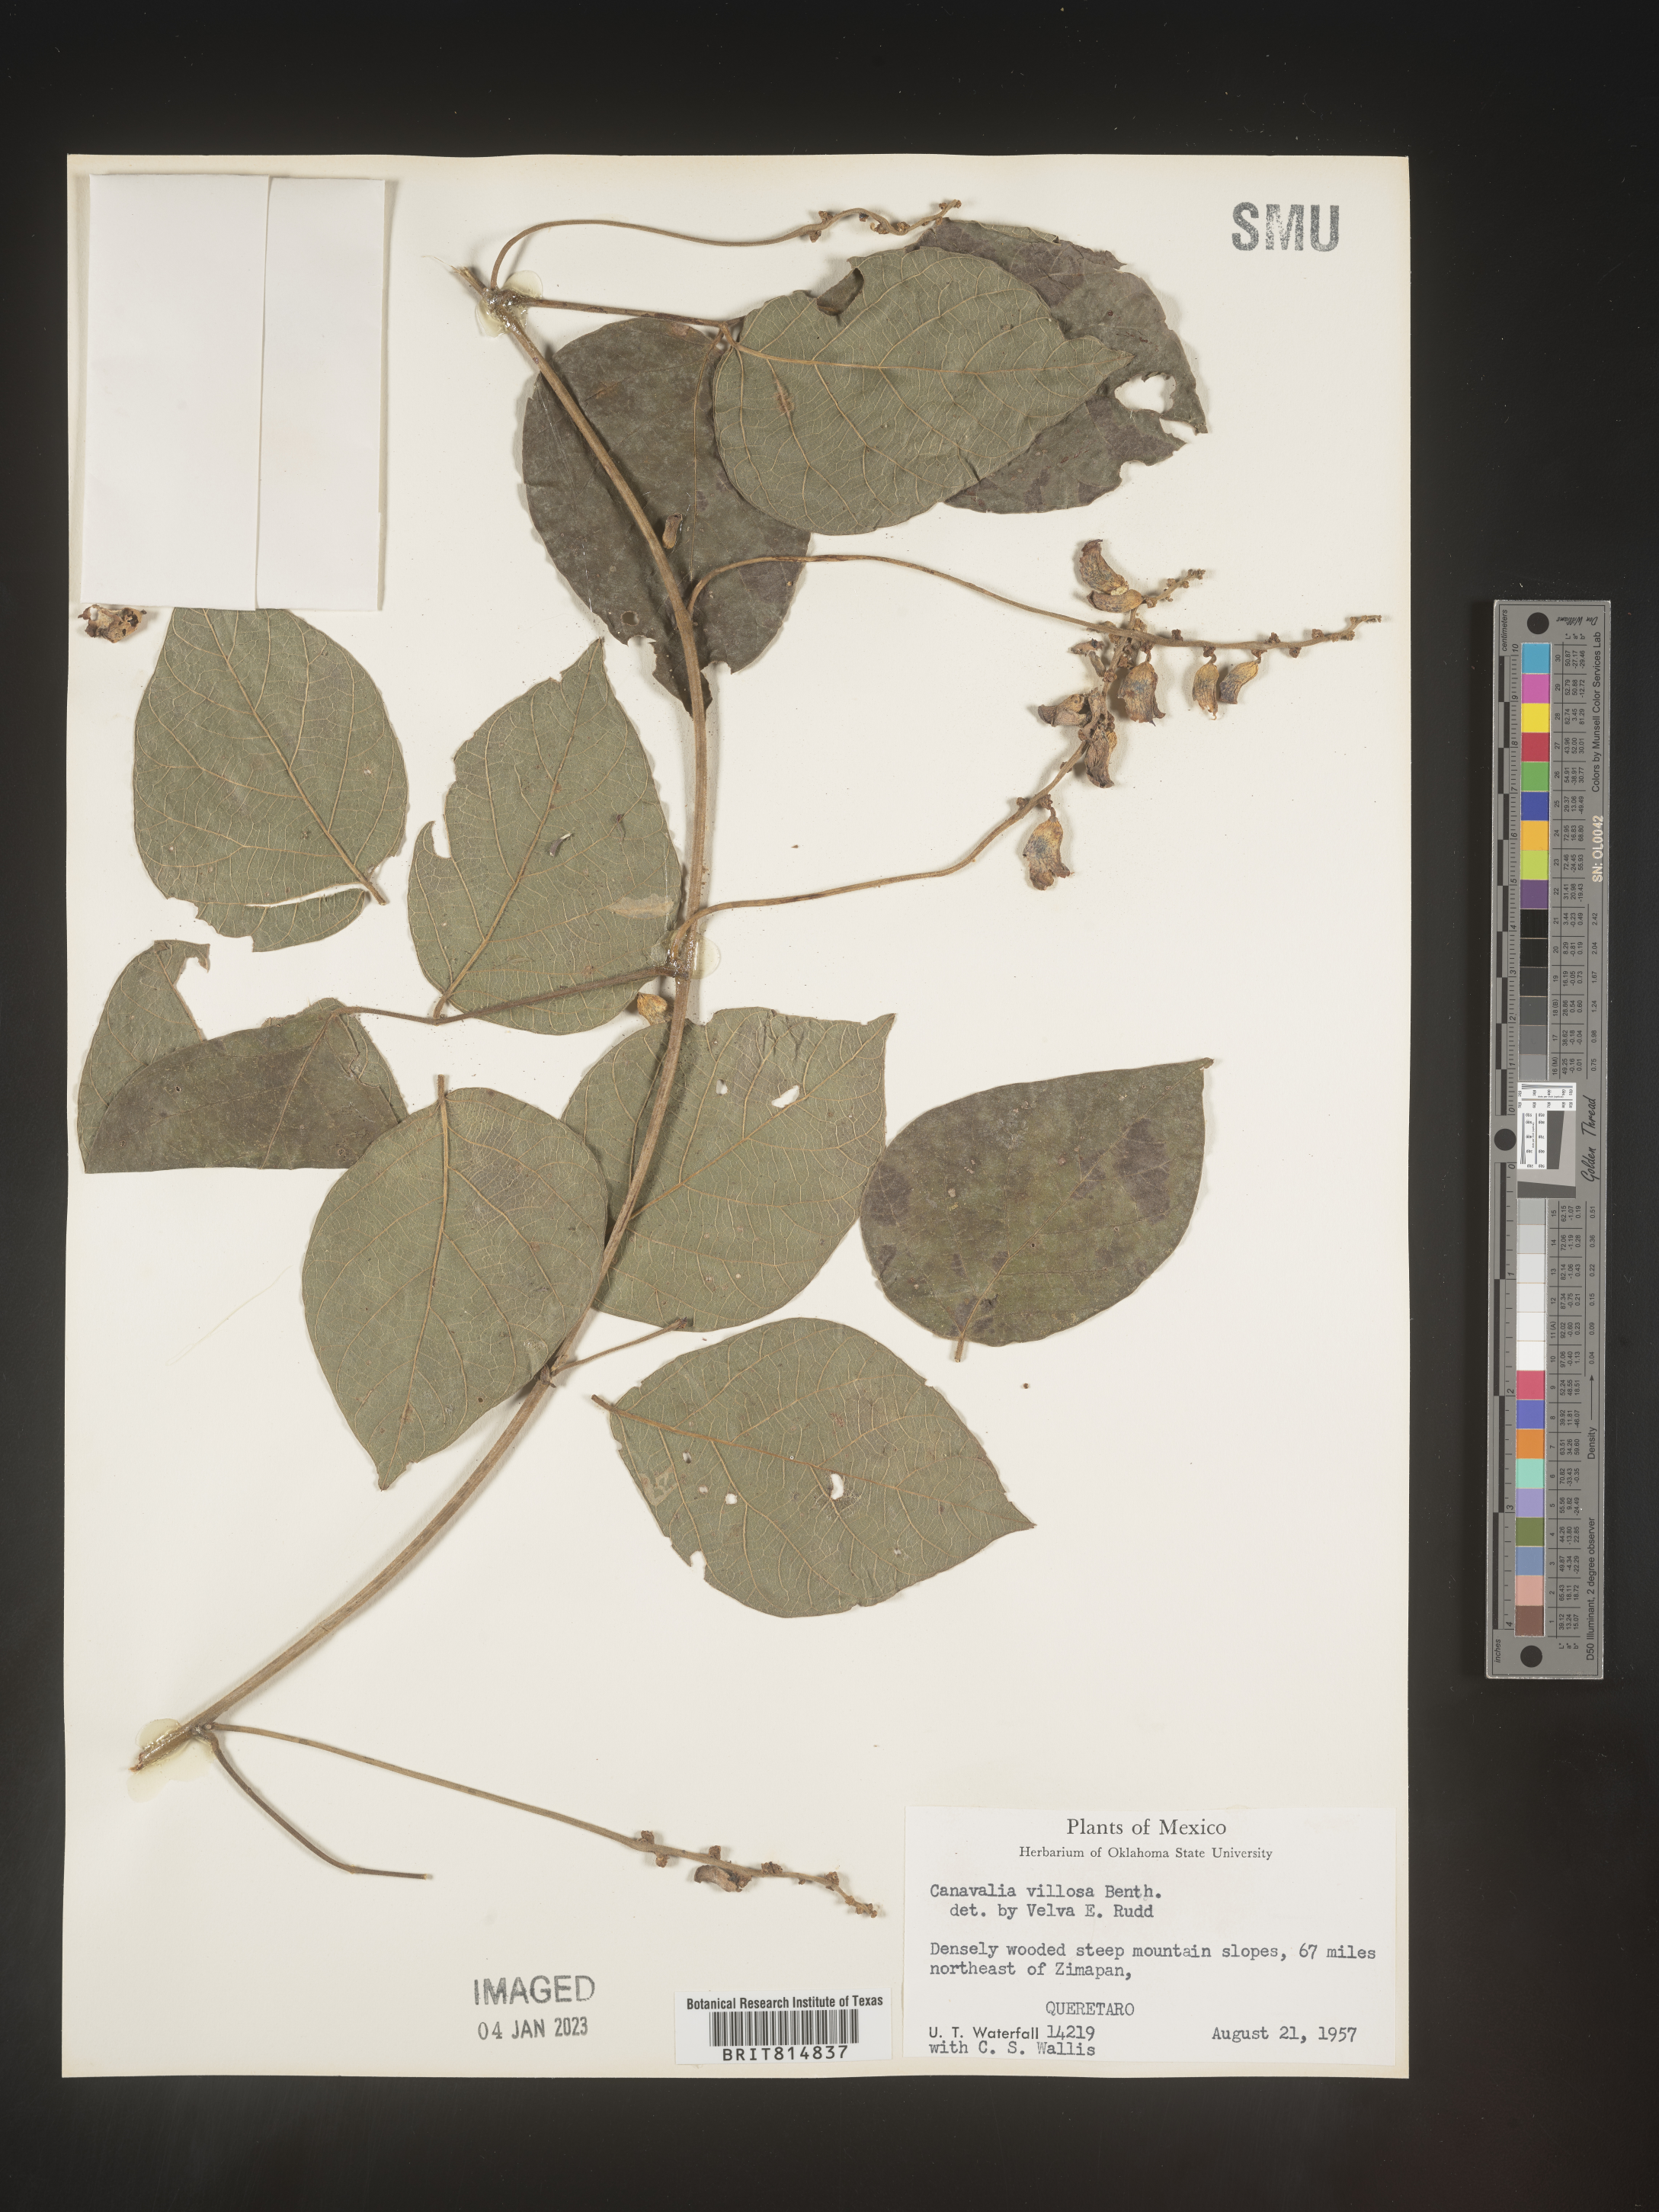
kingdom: Plantae
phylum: Tracheophyta
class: Magnoliopsida
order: Fabales
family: Fabaceae
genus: Canavalia
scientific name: Canavalia
